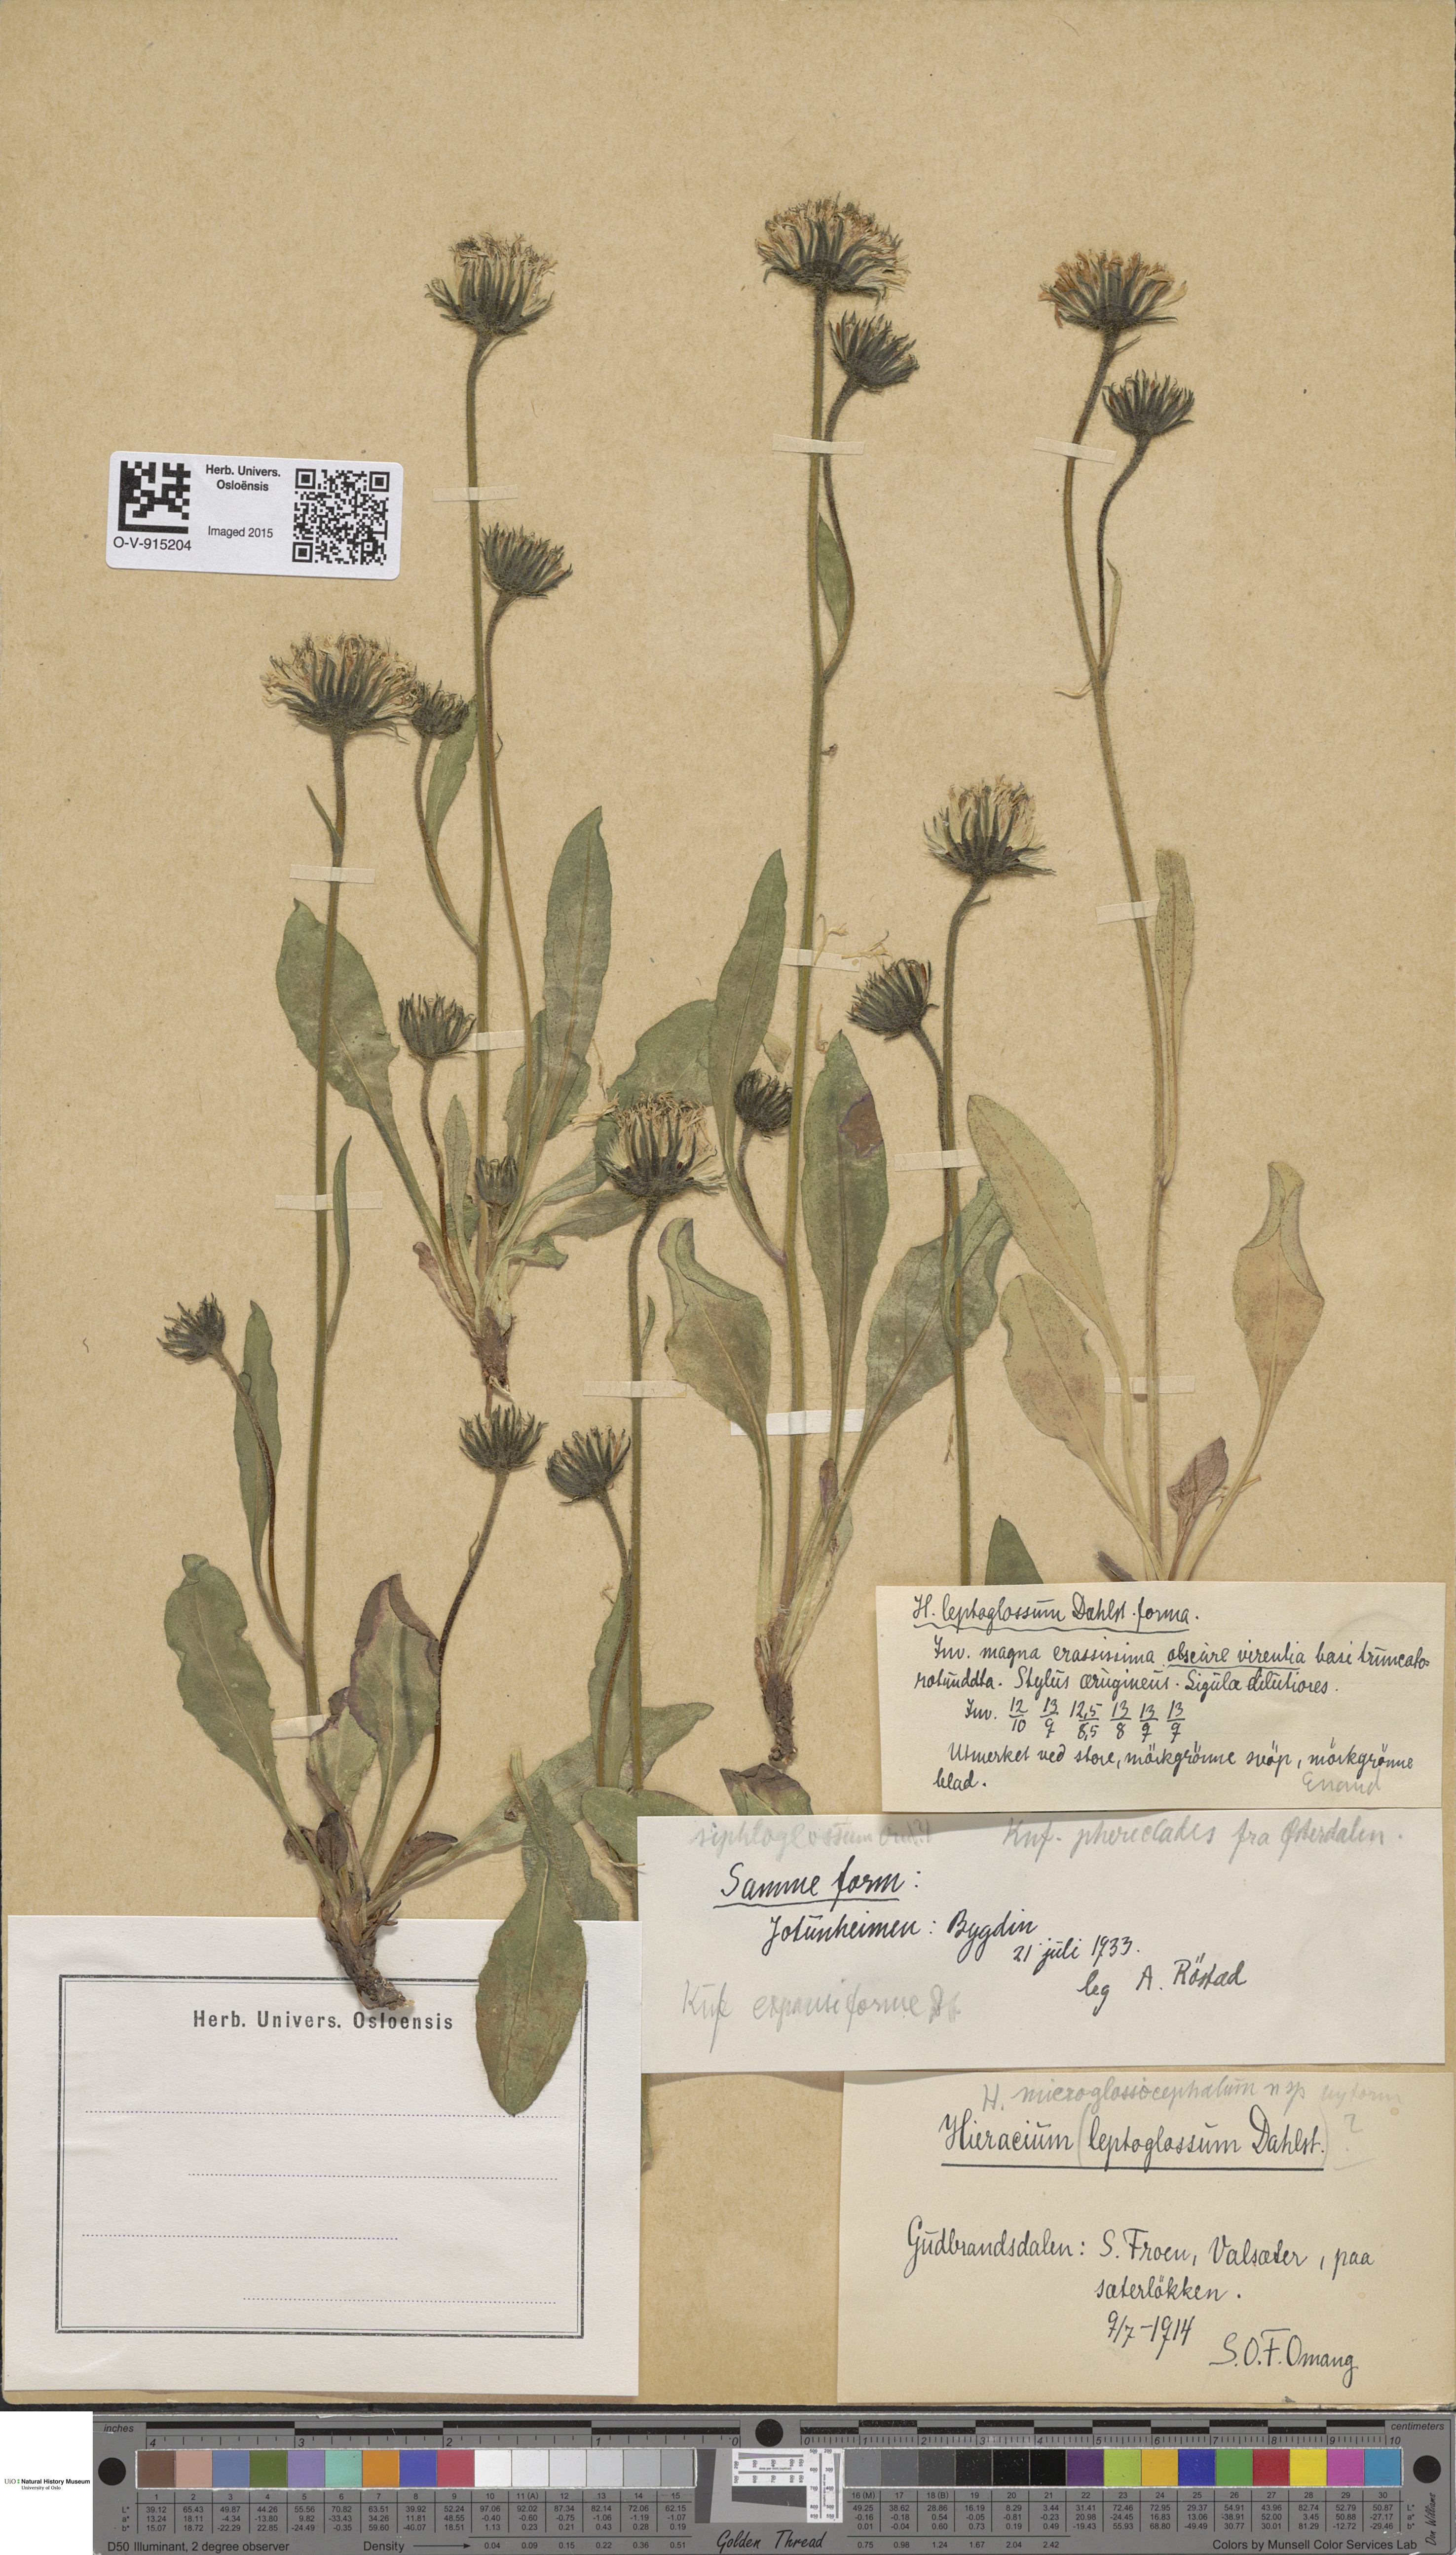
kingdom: Plantae
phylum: Tracheophyta
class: Magnoliopsida
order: Asterales
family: Asteraceae
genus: Hieracium
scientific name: Hieracium
